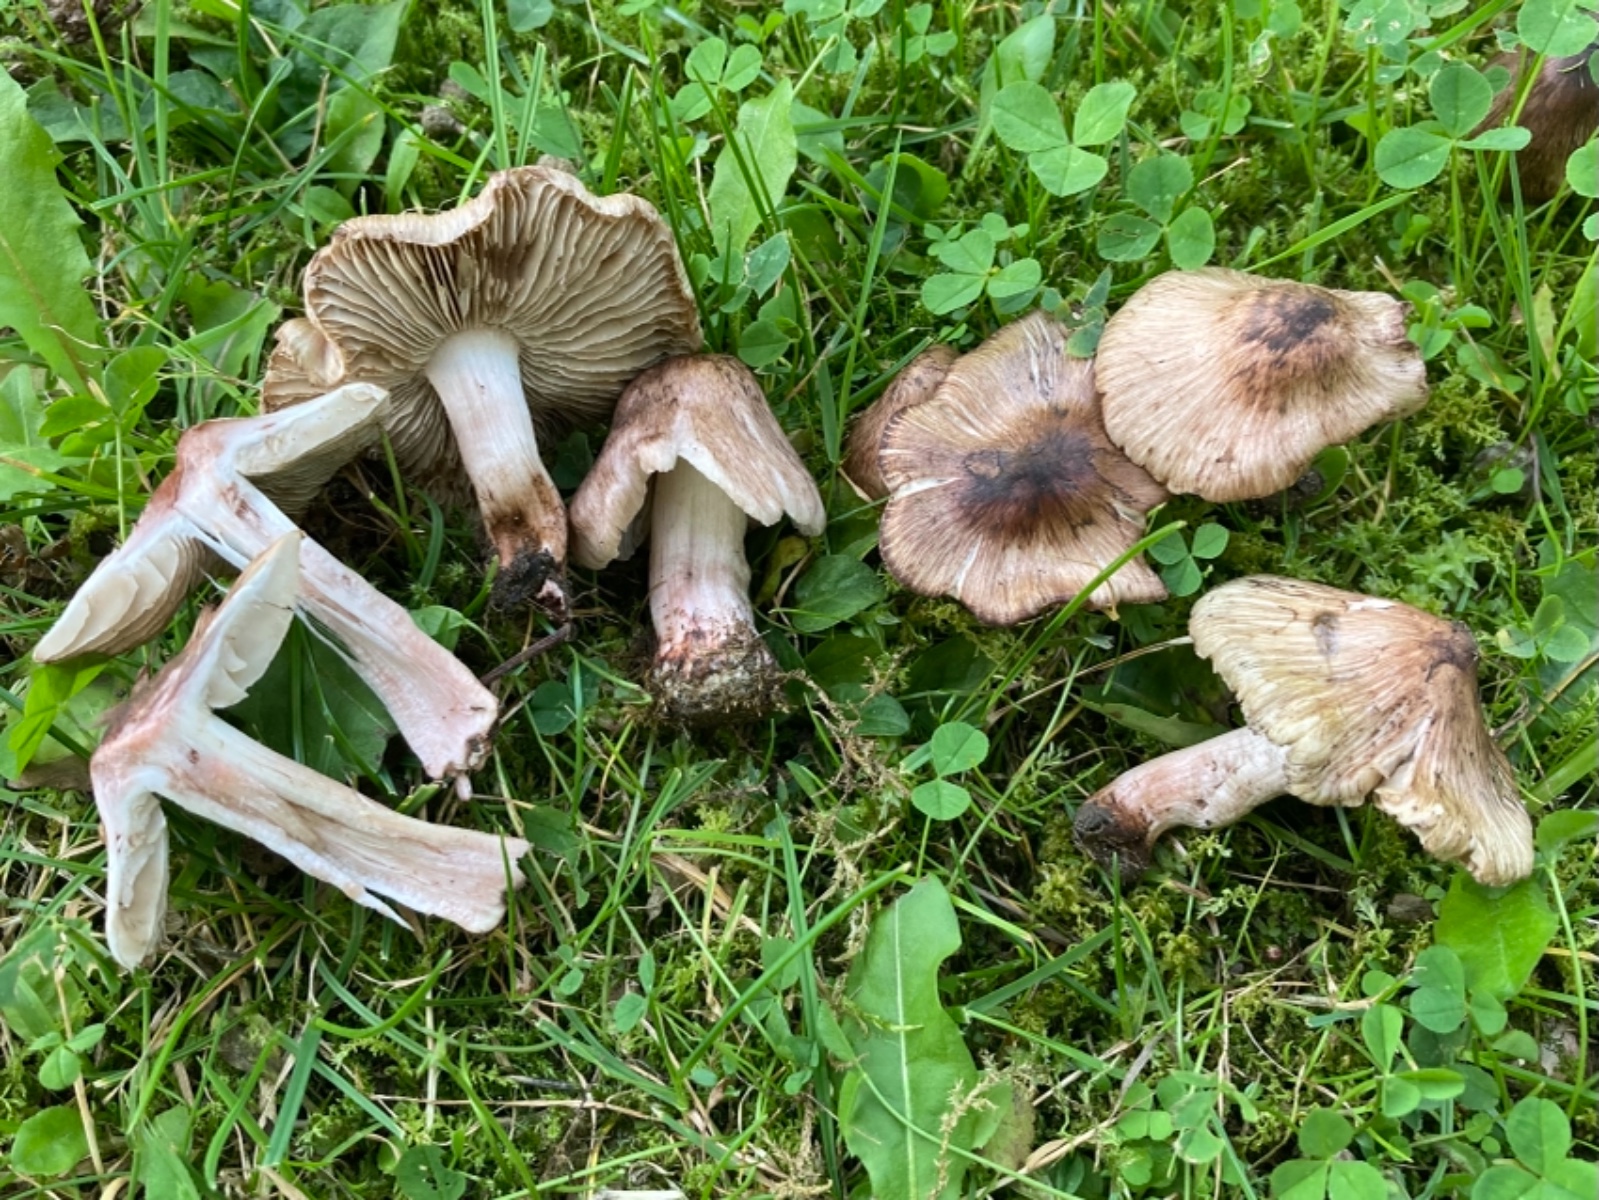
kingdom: Fungi
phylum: Basidiomycota
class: Agaricomycetes
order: Agaricales
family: Inocybaceae
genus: Inosperma
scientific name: Inosperma adaequatum
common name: vinrød trævlhat
